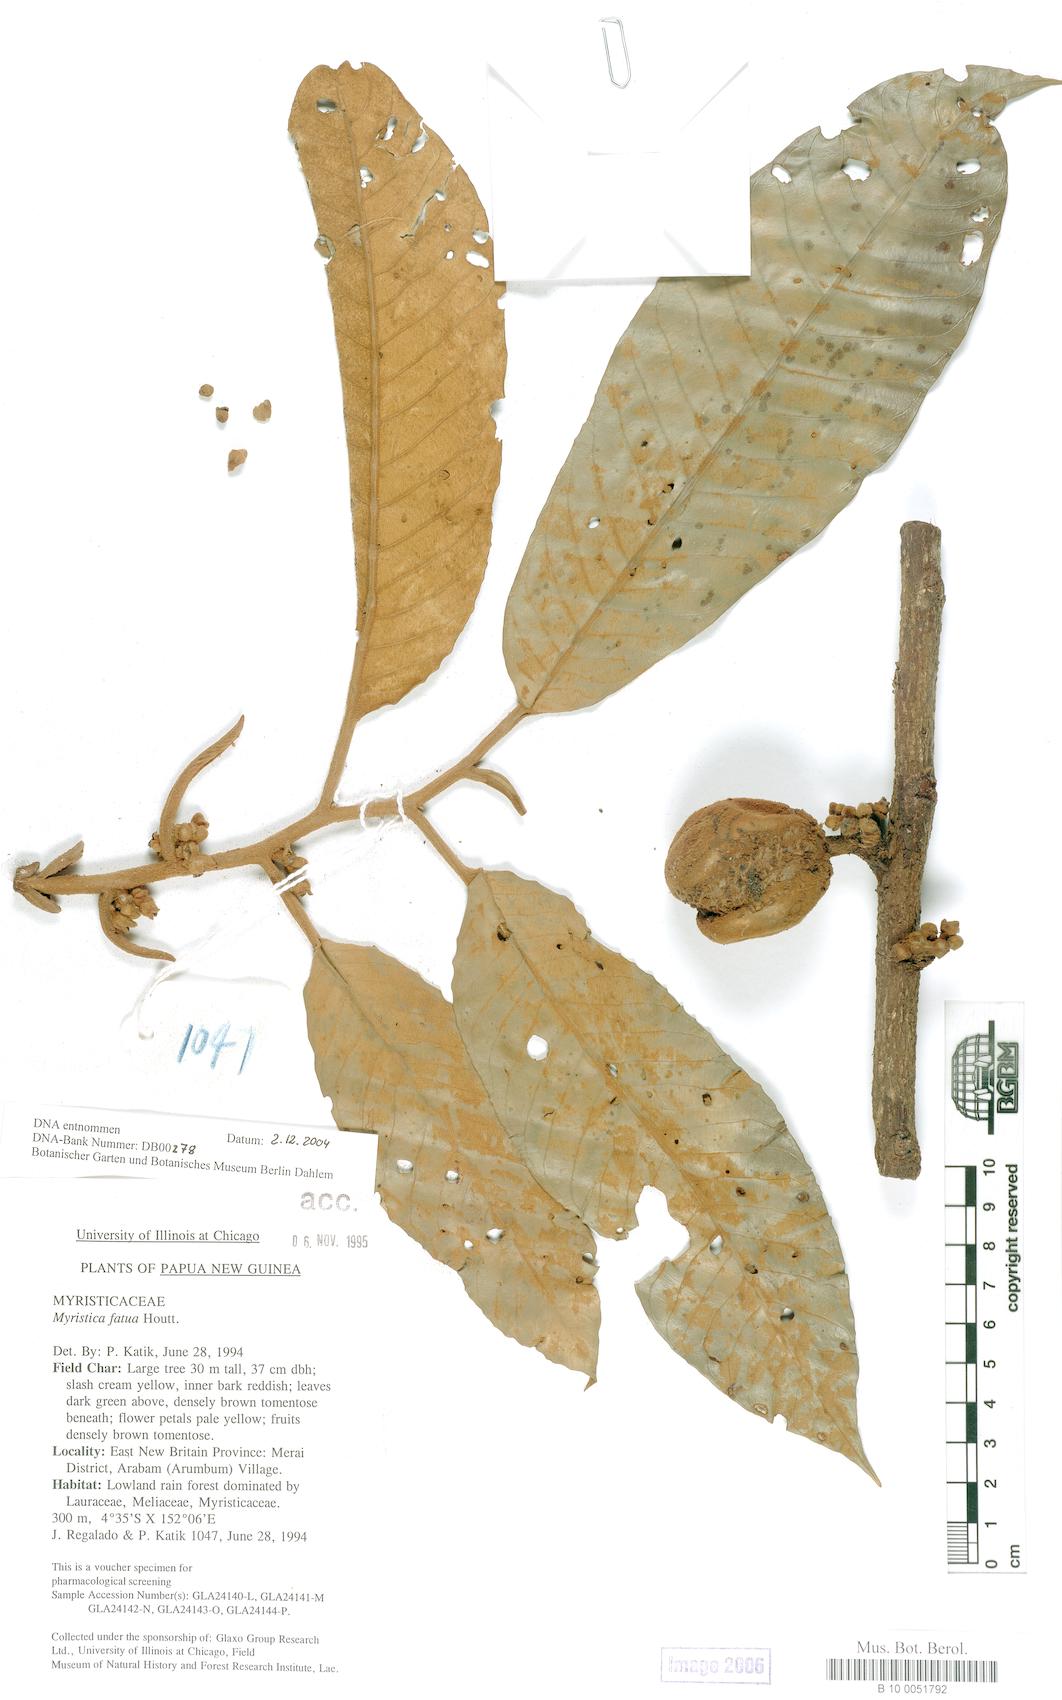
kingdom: Plantae
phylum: Tracheophyta
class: Magnoliopsida
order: Magnoliales
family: Myristicaceae
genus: Myristica
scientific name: Myristica fatua
